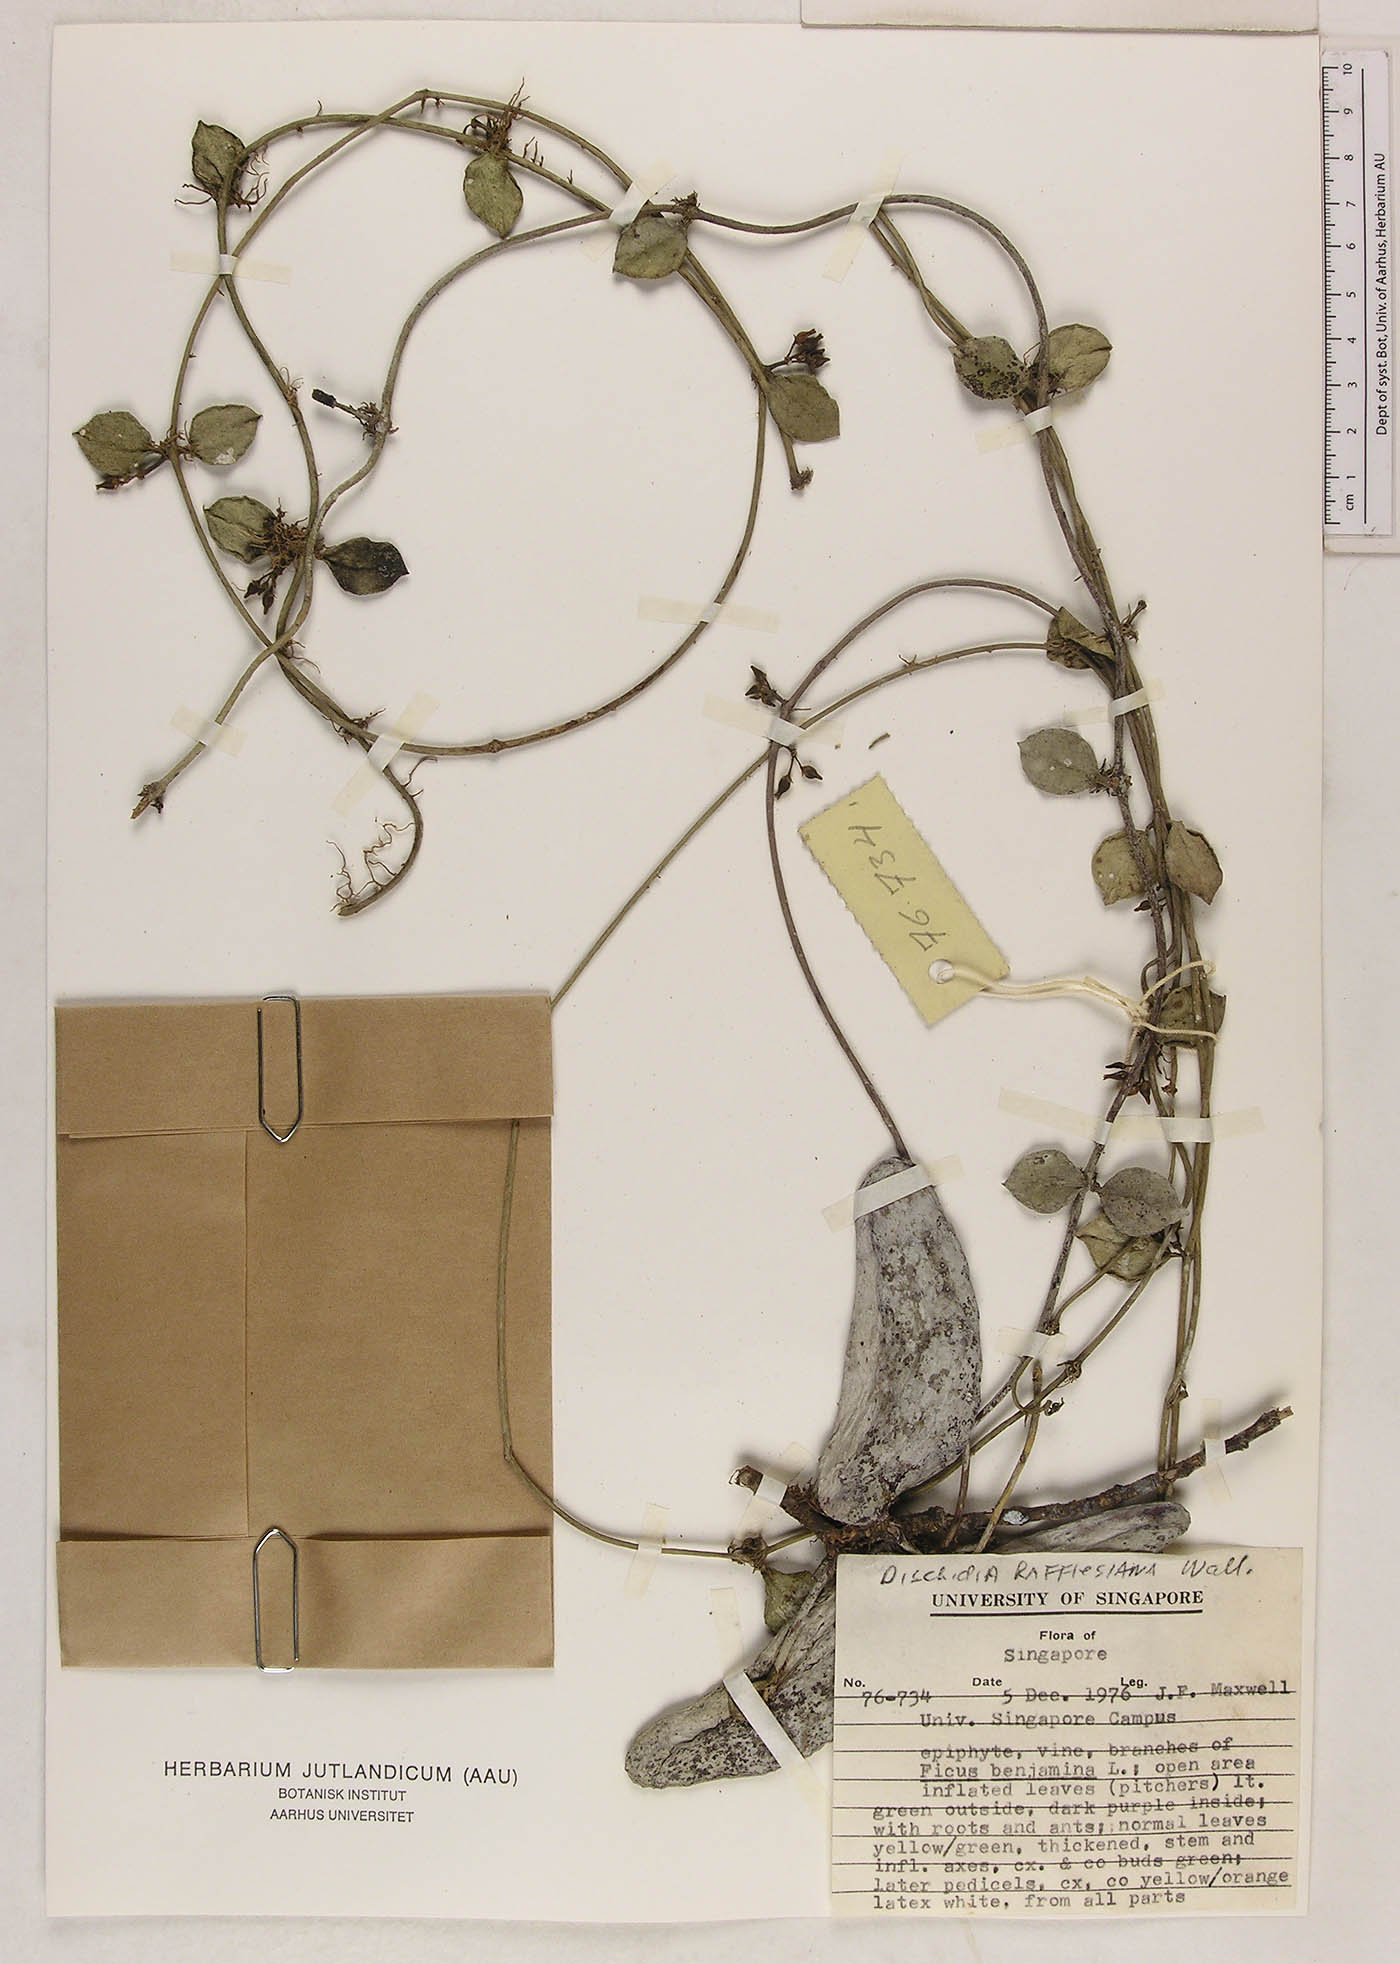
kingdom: Plantae
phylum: Tracheophyta
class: Magnoliopsida
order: Gentianales
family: Apocynaceae
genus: Dischidia
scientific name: Dischidia major
